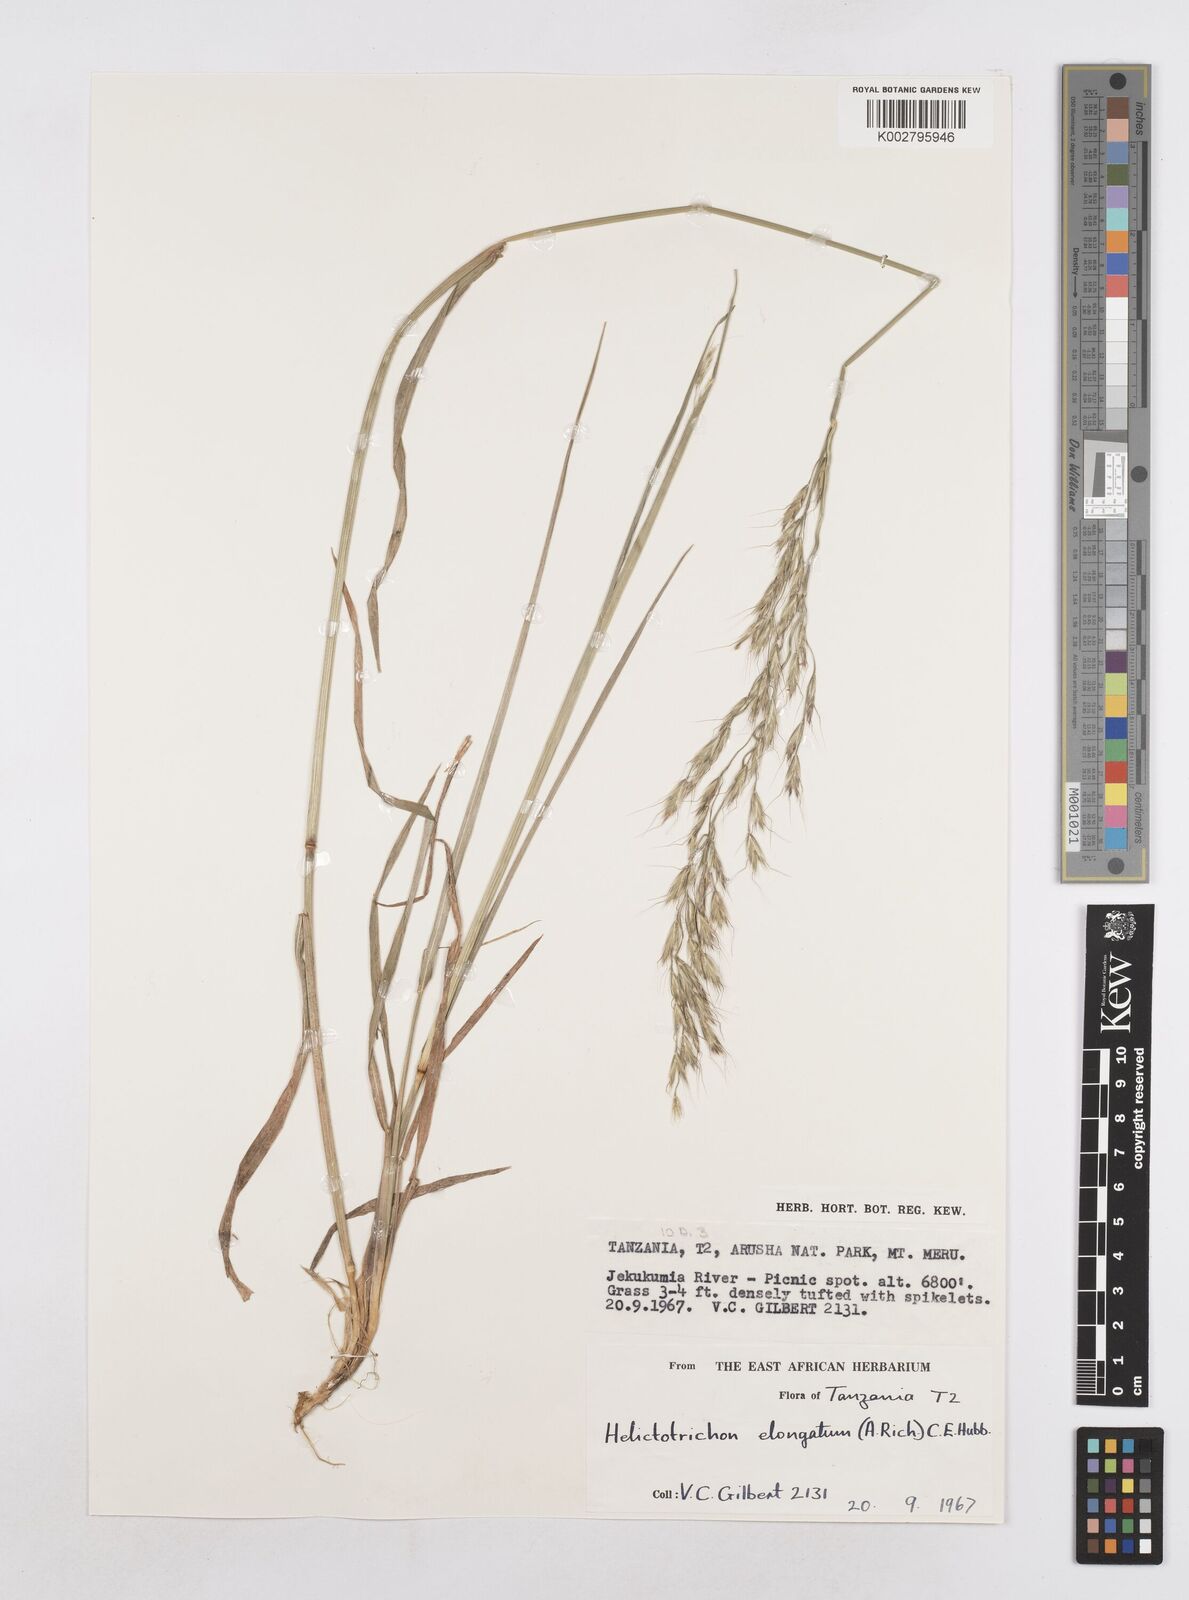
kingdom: Plantae
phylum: Tracheophyta
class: Liliopsida
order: Poales
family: Poaceae
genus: Trisetopsis
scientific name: Trisetopsis elongata
